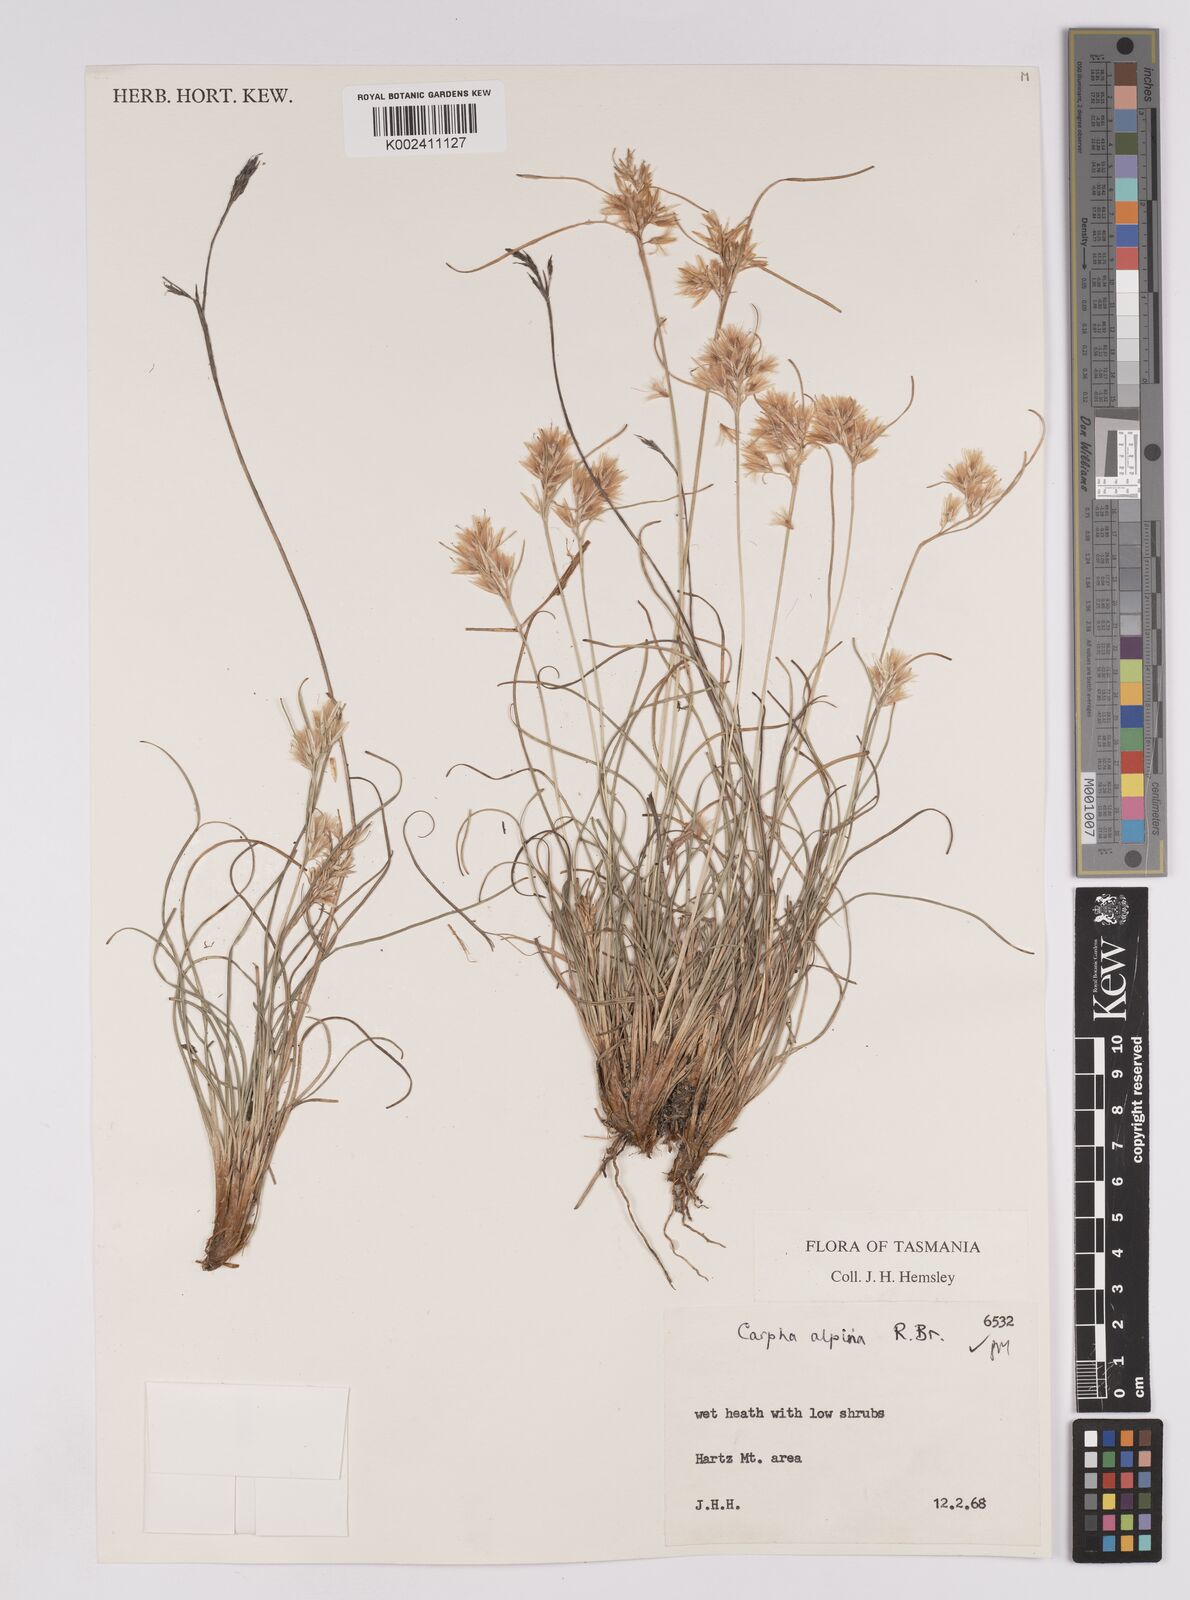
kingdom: Plantae
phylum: Tracheophyta
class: Liliopsida
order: Poales
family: Cyperaceae
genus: Carpha
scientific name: Carpha alpina
